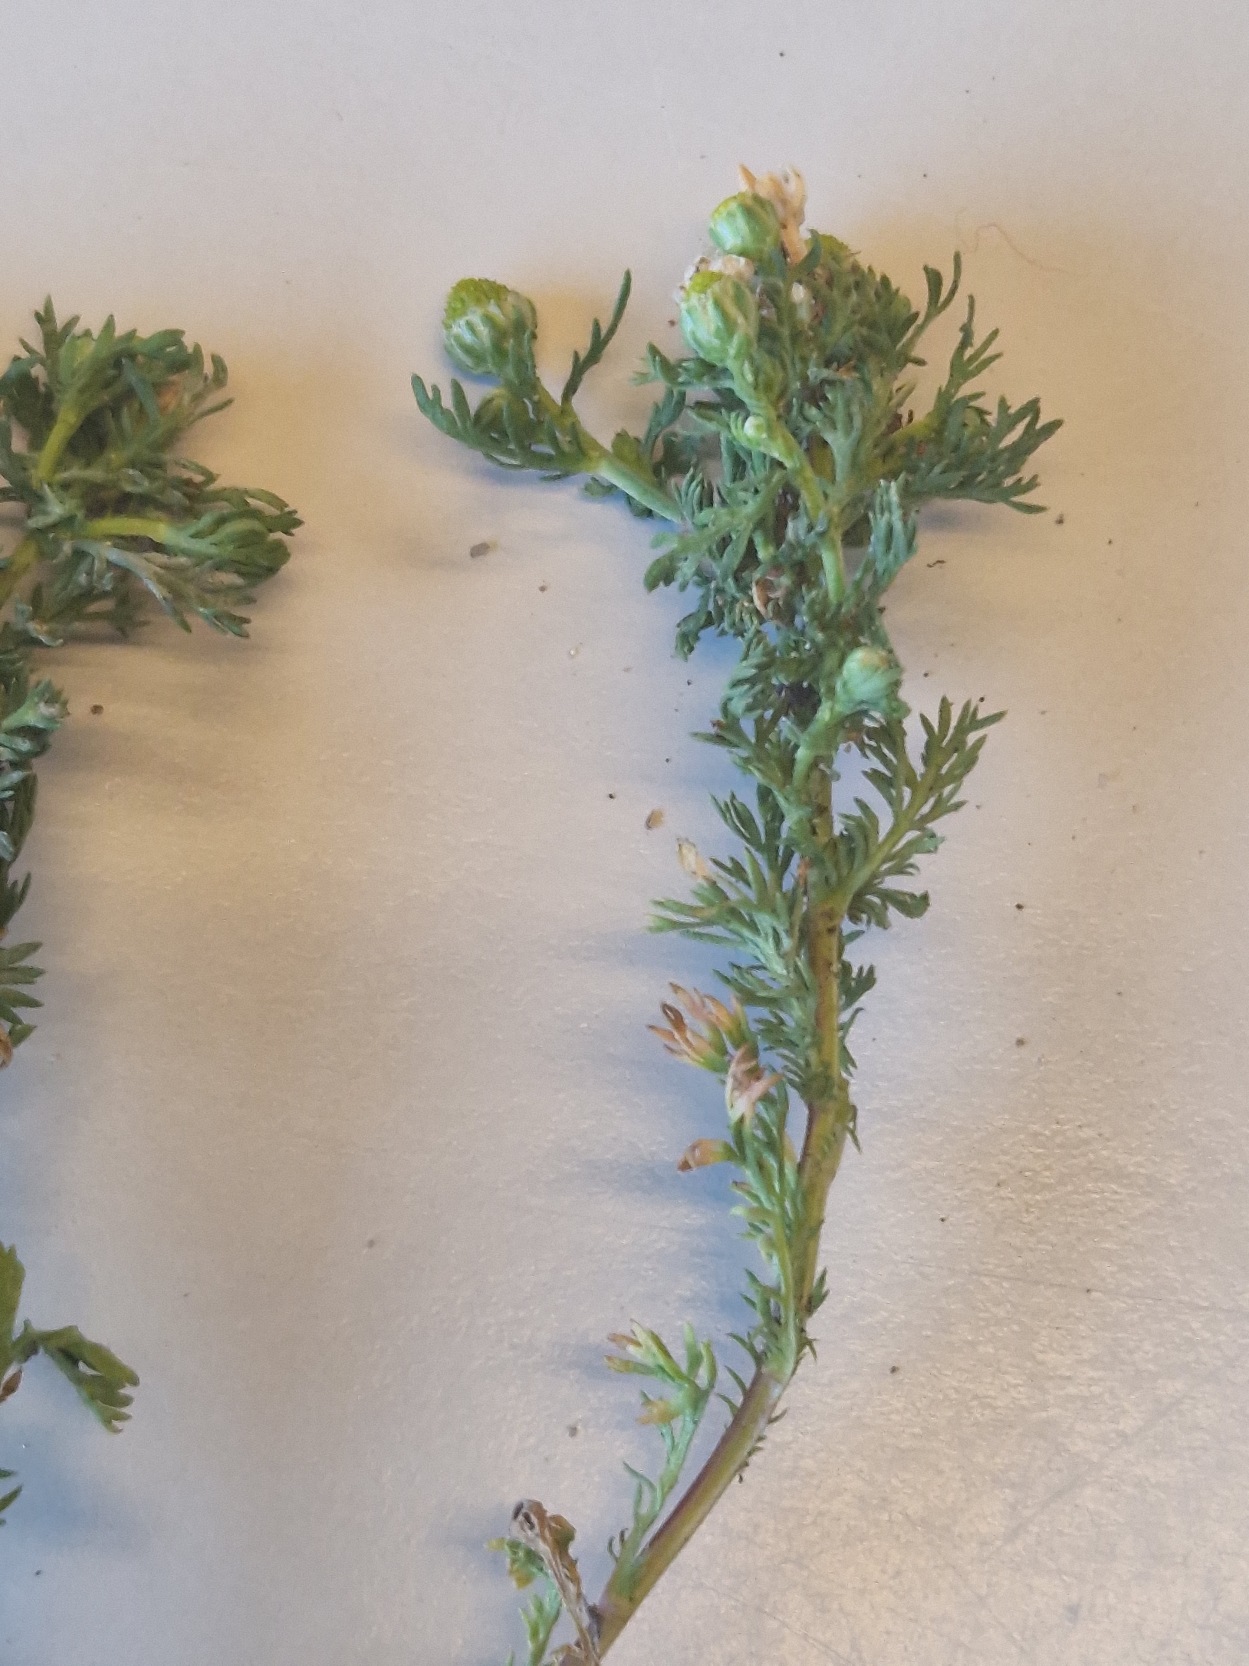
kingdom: Plantae
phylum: Tracheophyta
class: Magnoliopsida
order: Asterales
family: Asteraceae
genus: Matricaria
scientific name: Matricaria discoidea
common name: Skive-kamille
